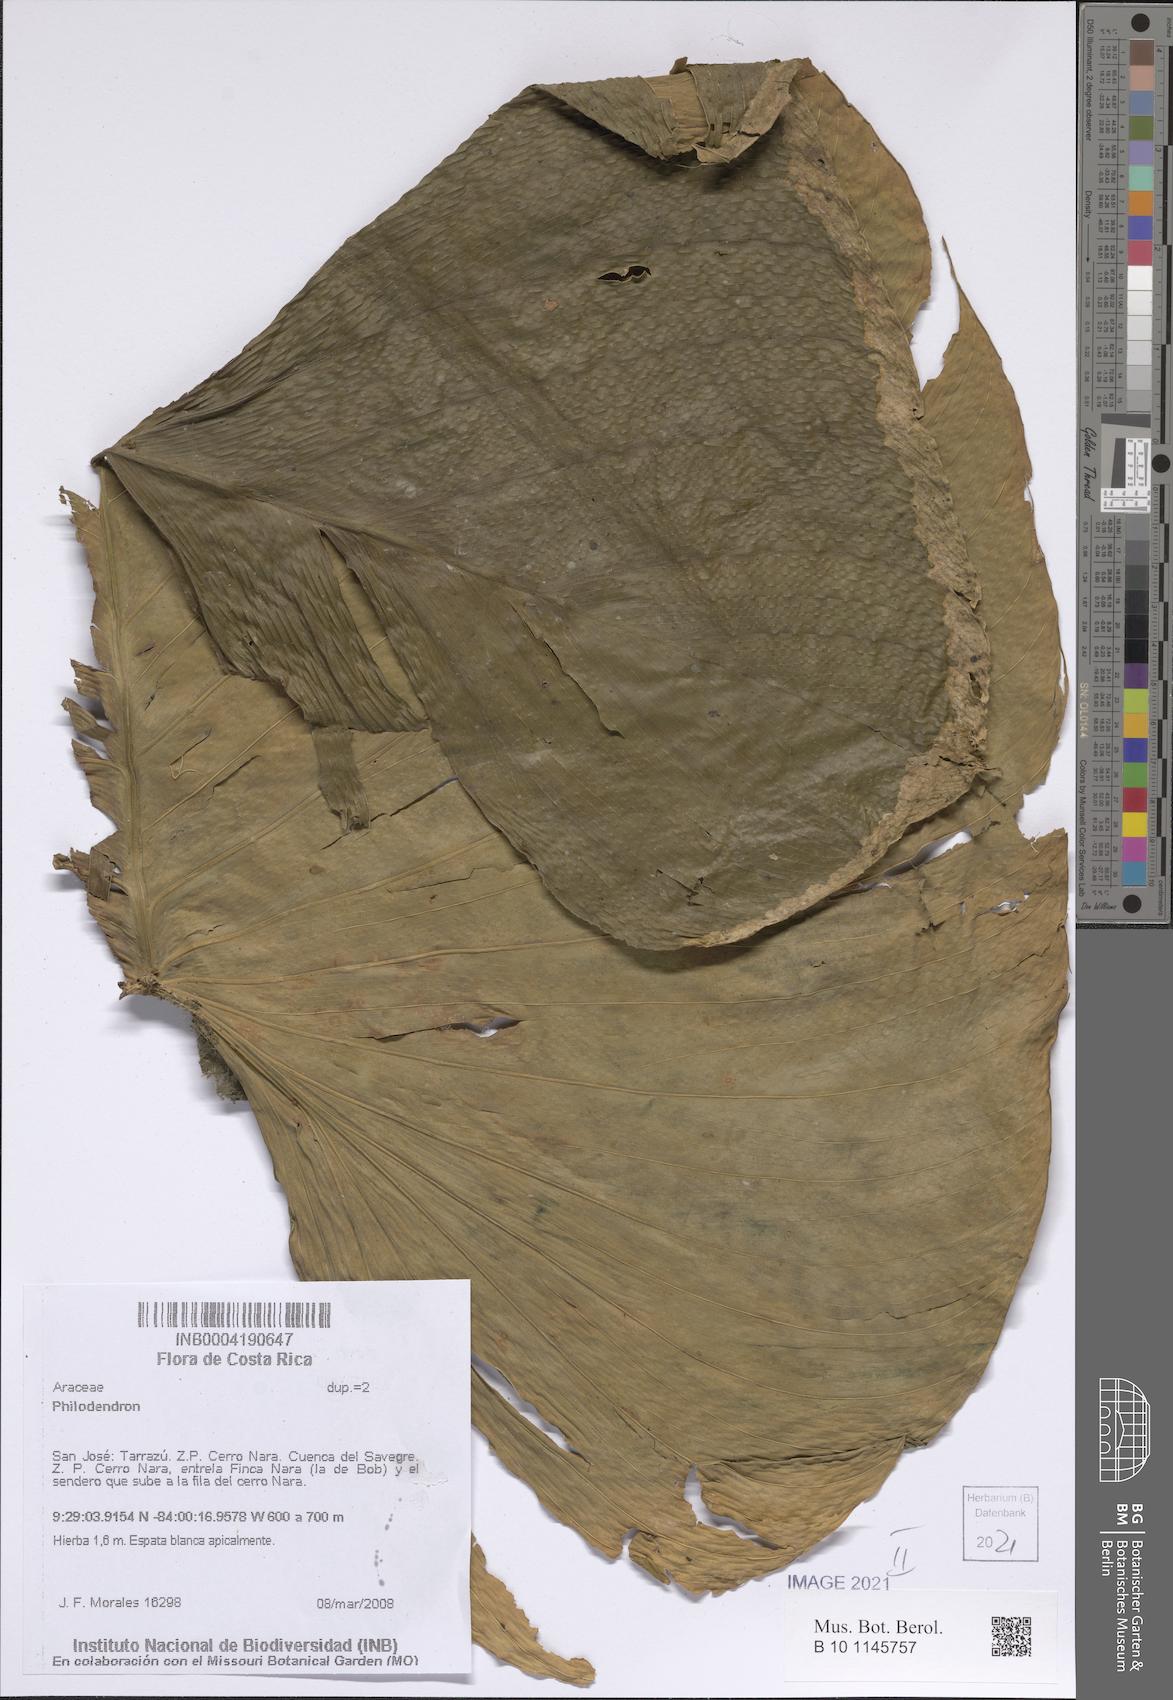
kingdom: Plantae
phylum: Tracheophyta
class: Liliopsida
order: Alismatales
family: Araceae
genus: Philodendron
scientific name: Philodendron
